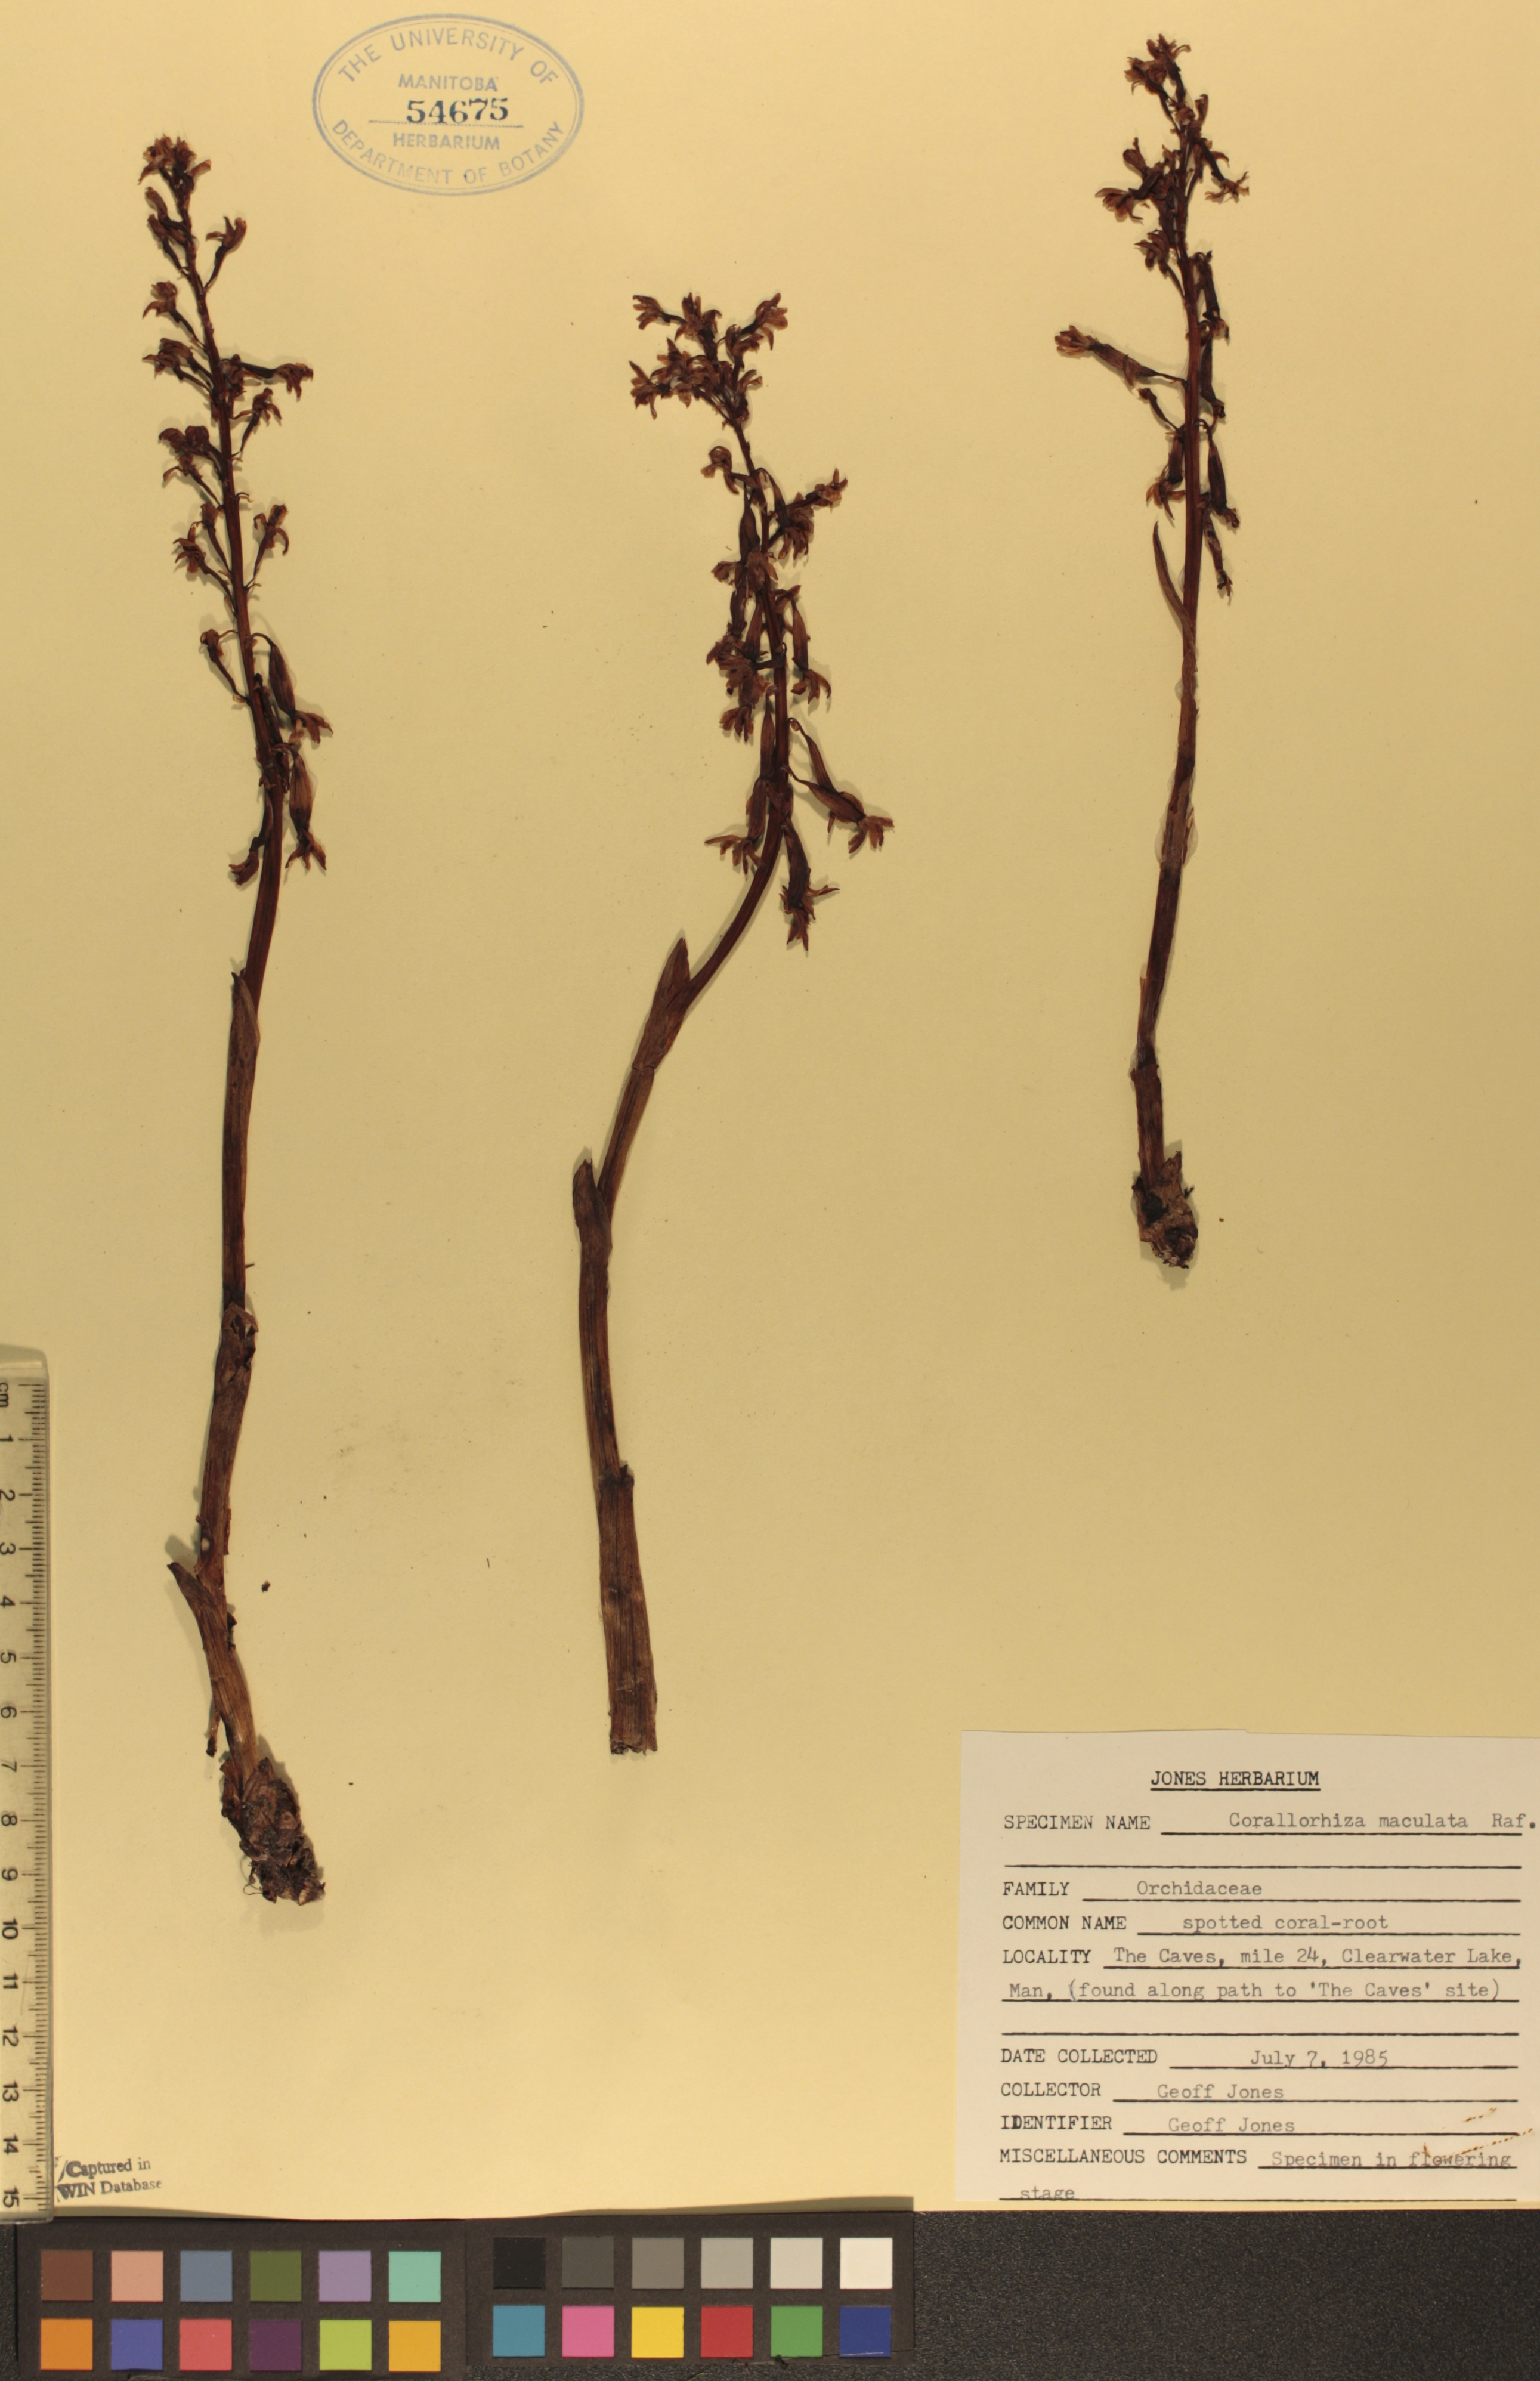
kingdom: Plantae
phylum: Tracheophyta
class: Liliopsida
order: Asparagales
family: Orchidaceae
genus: Corallorhiza
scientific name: Corallorhiza maculata
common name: Spotted coralroot
